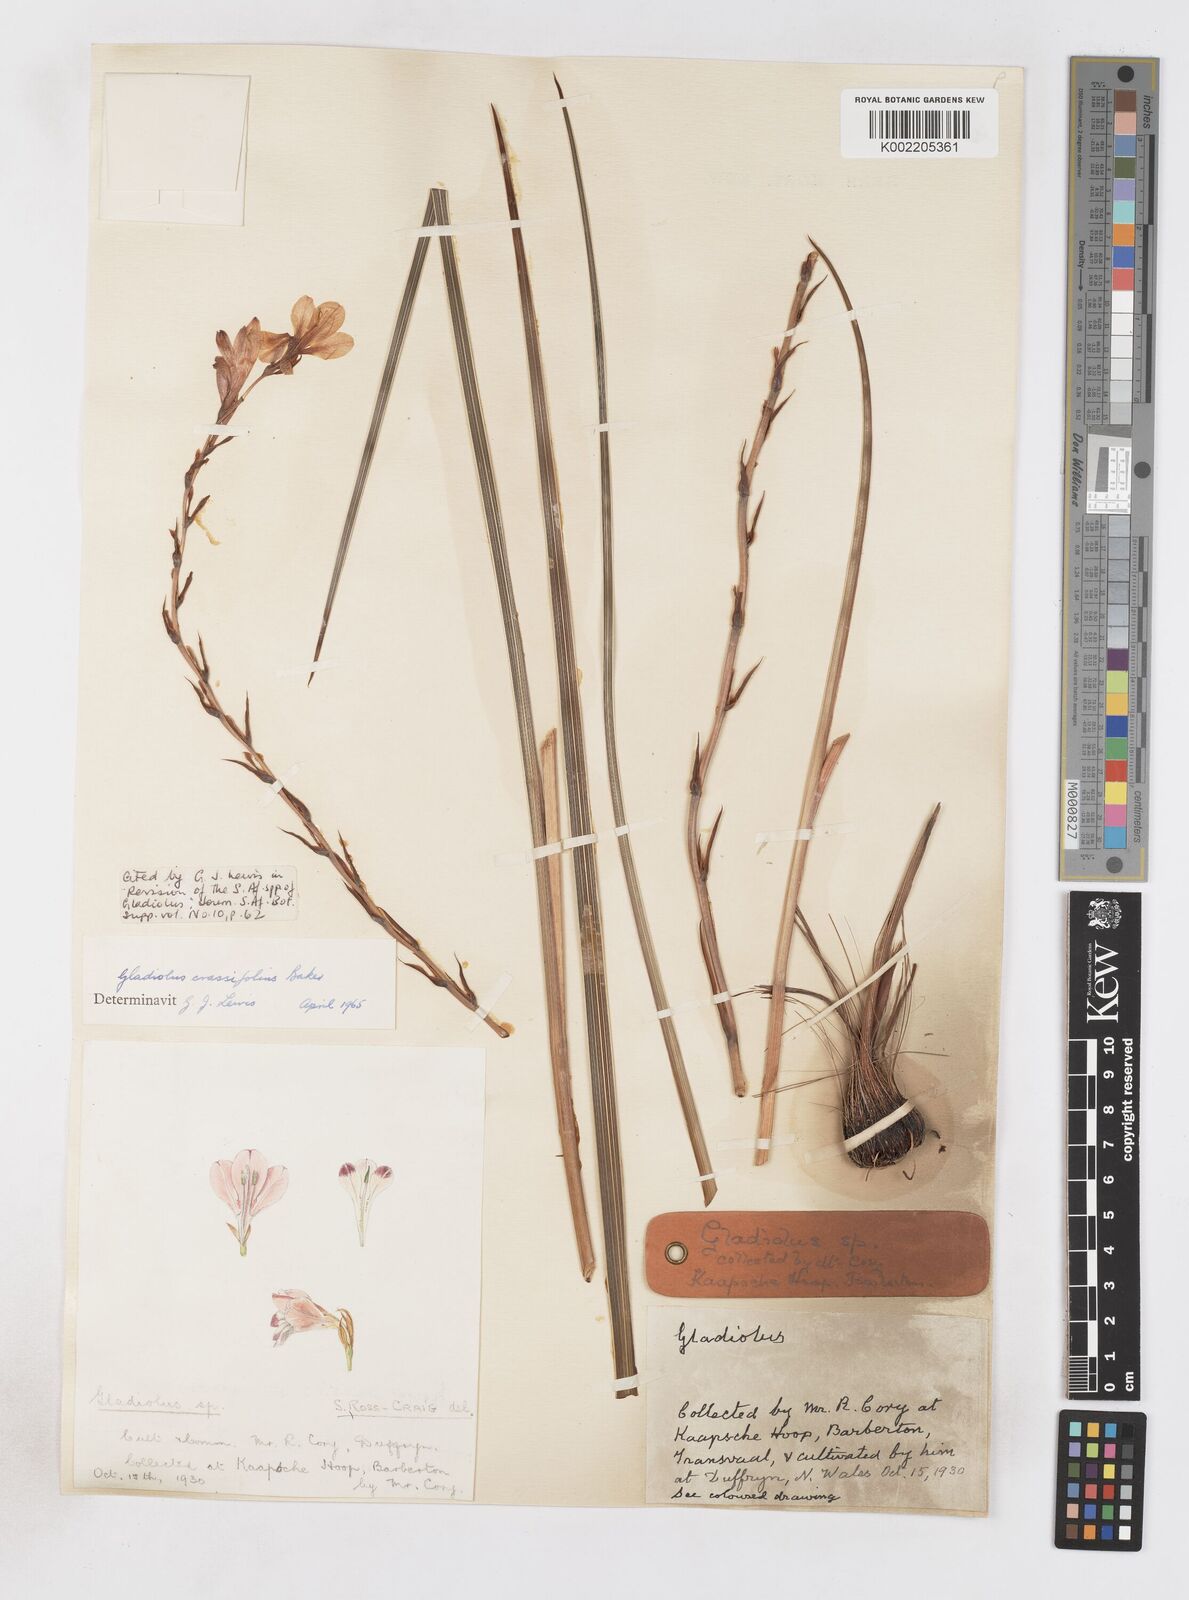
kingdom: Plantae
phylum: Tracheophyta
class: Liliopsida
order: Asparagales
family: Iridaceae
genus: Gladiolus
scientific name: Gladiolus crassifolius
